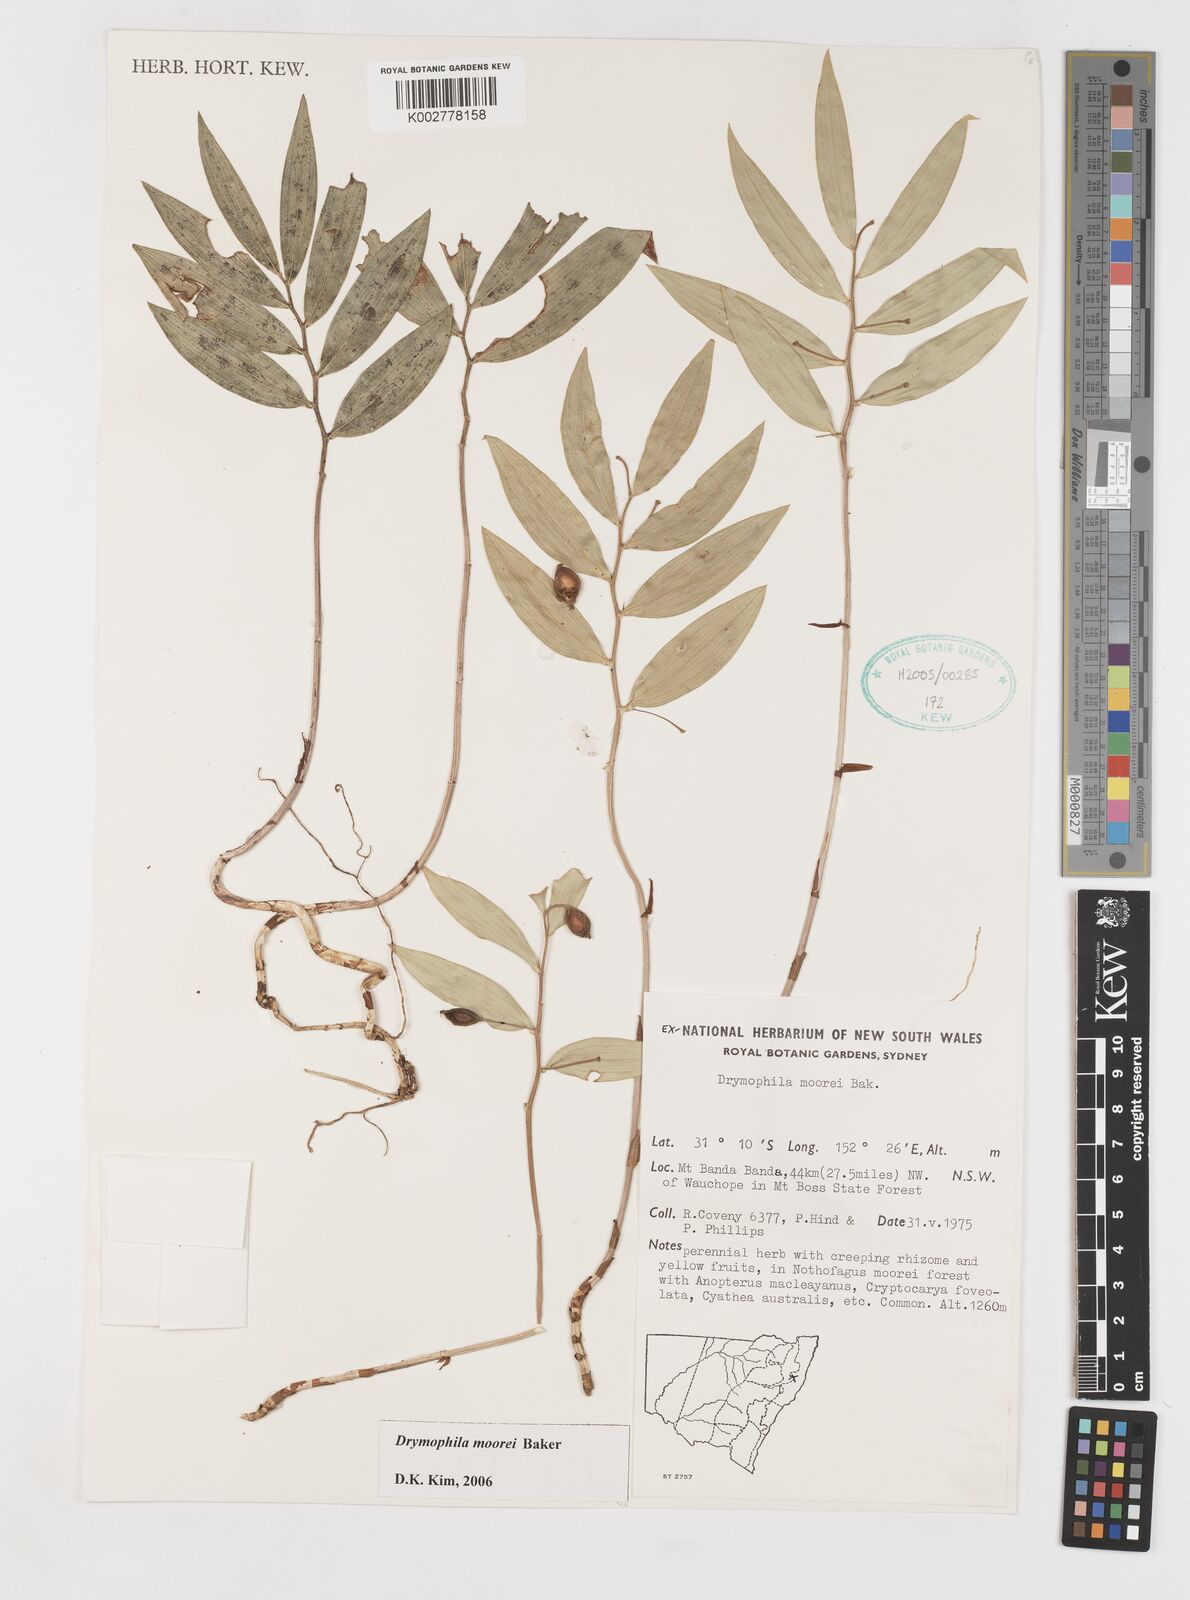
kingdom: Plantae
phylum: Tracheophyta
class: Liliopsida
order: Liliales
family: Alstroemeriaceae
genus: Drymophila
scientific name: Drymophila moorei
